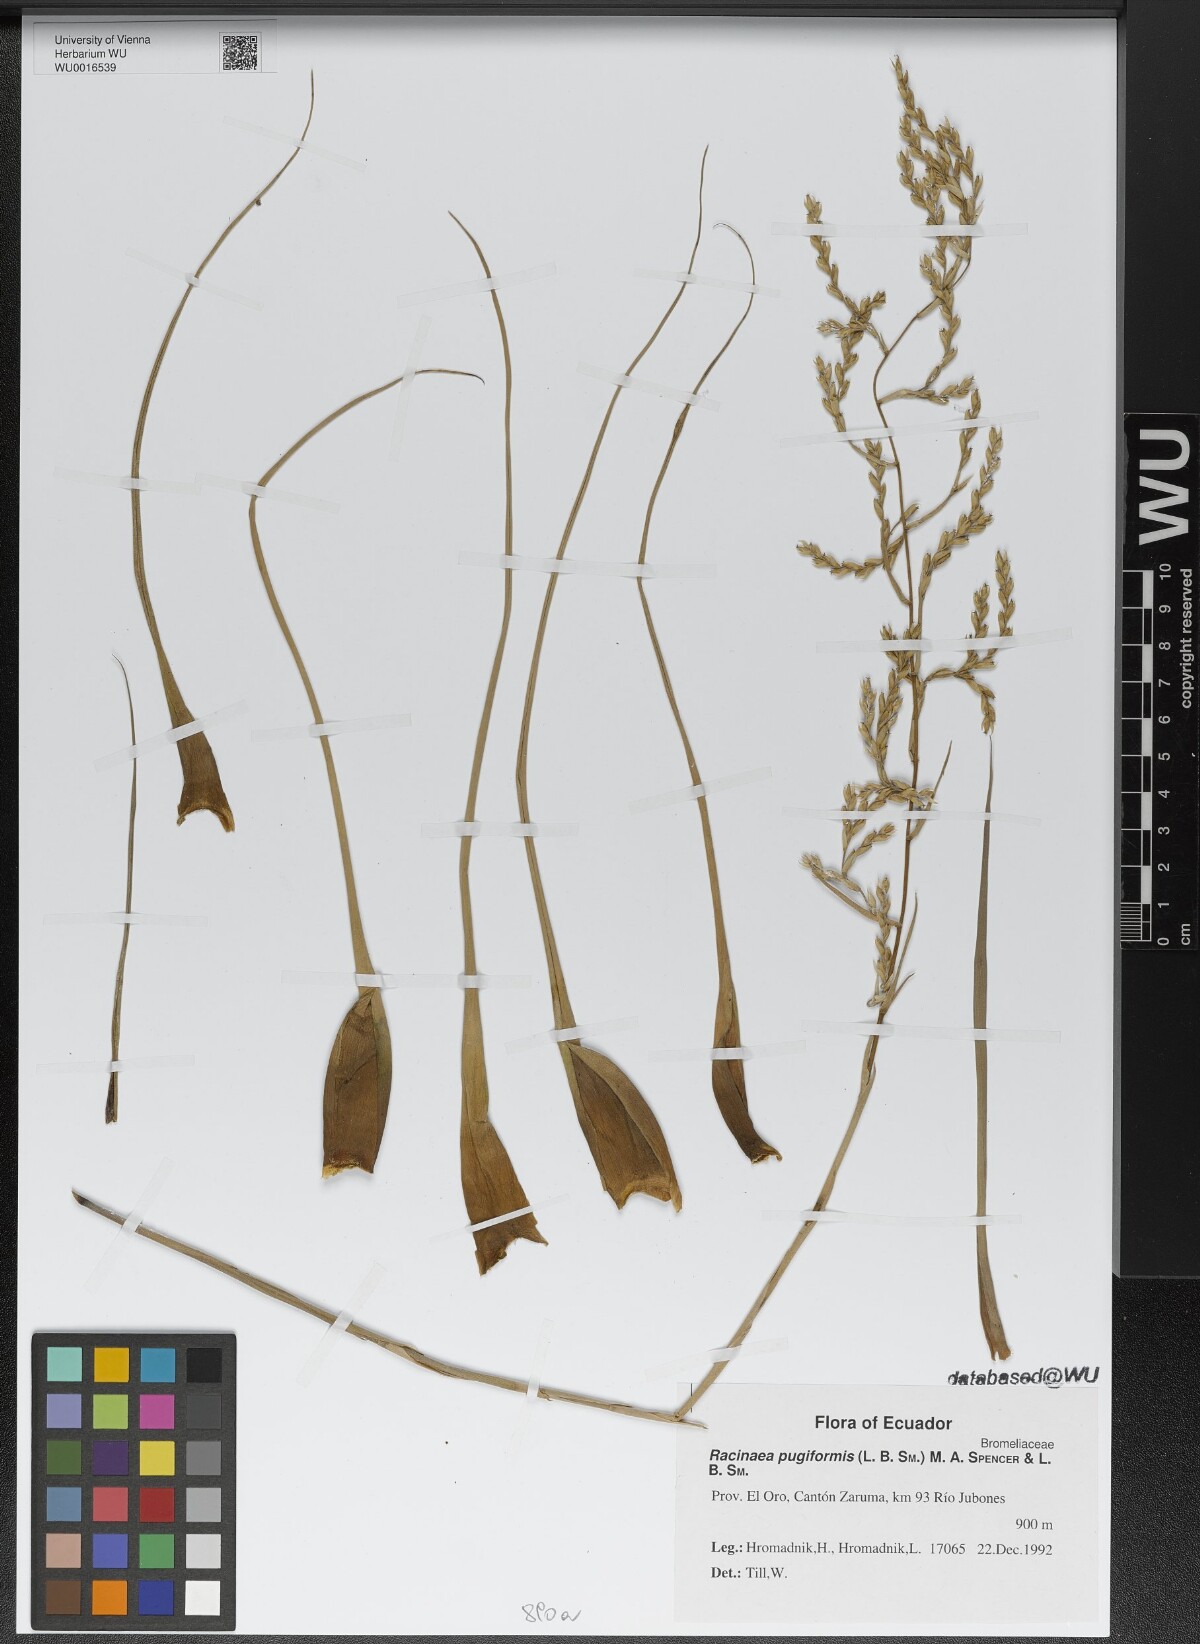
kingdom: Plantae
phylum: Tracheophyta
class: Liliopsida
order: Poales
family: Bromeliaceae
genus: Racinaea
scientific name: Racinaea pugiformis
